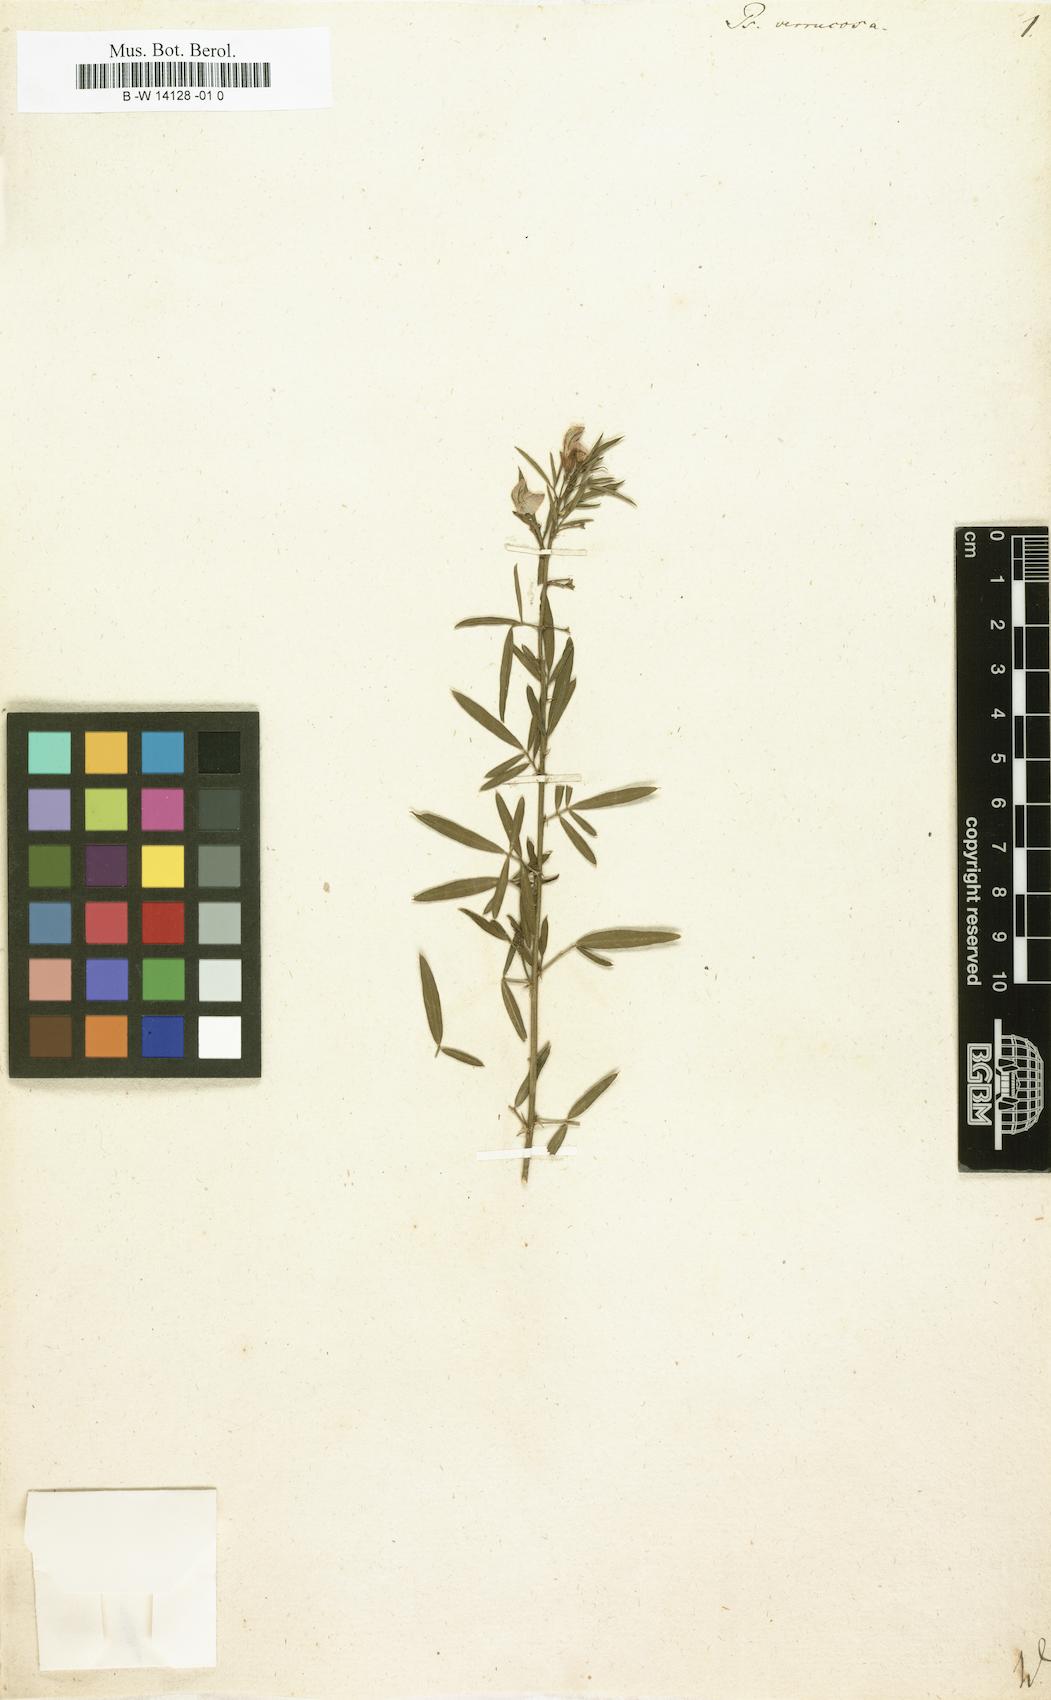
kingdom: Plantae
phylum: Tracheophyta
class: Magnoliopsida
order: Fabales
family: Fabaceae
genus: Psoralea
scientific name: Psoralea verrucosa
